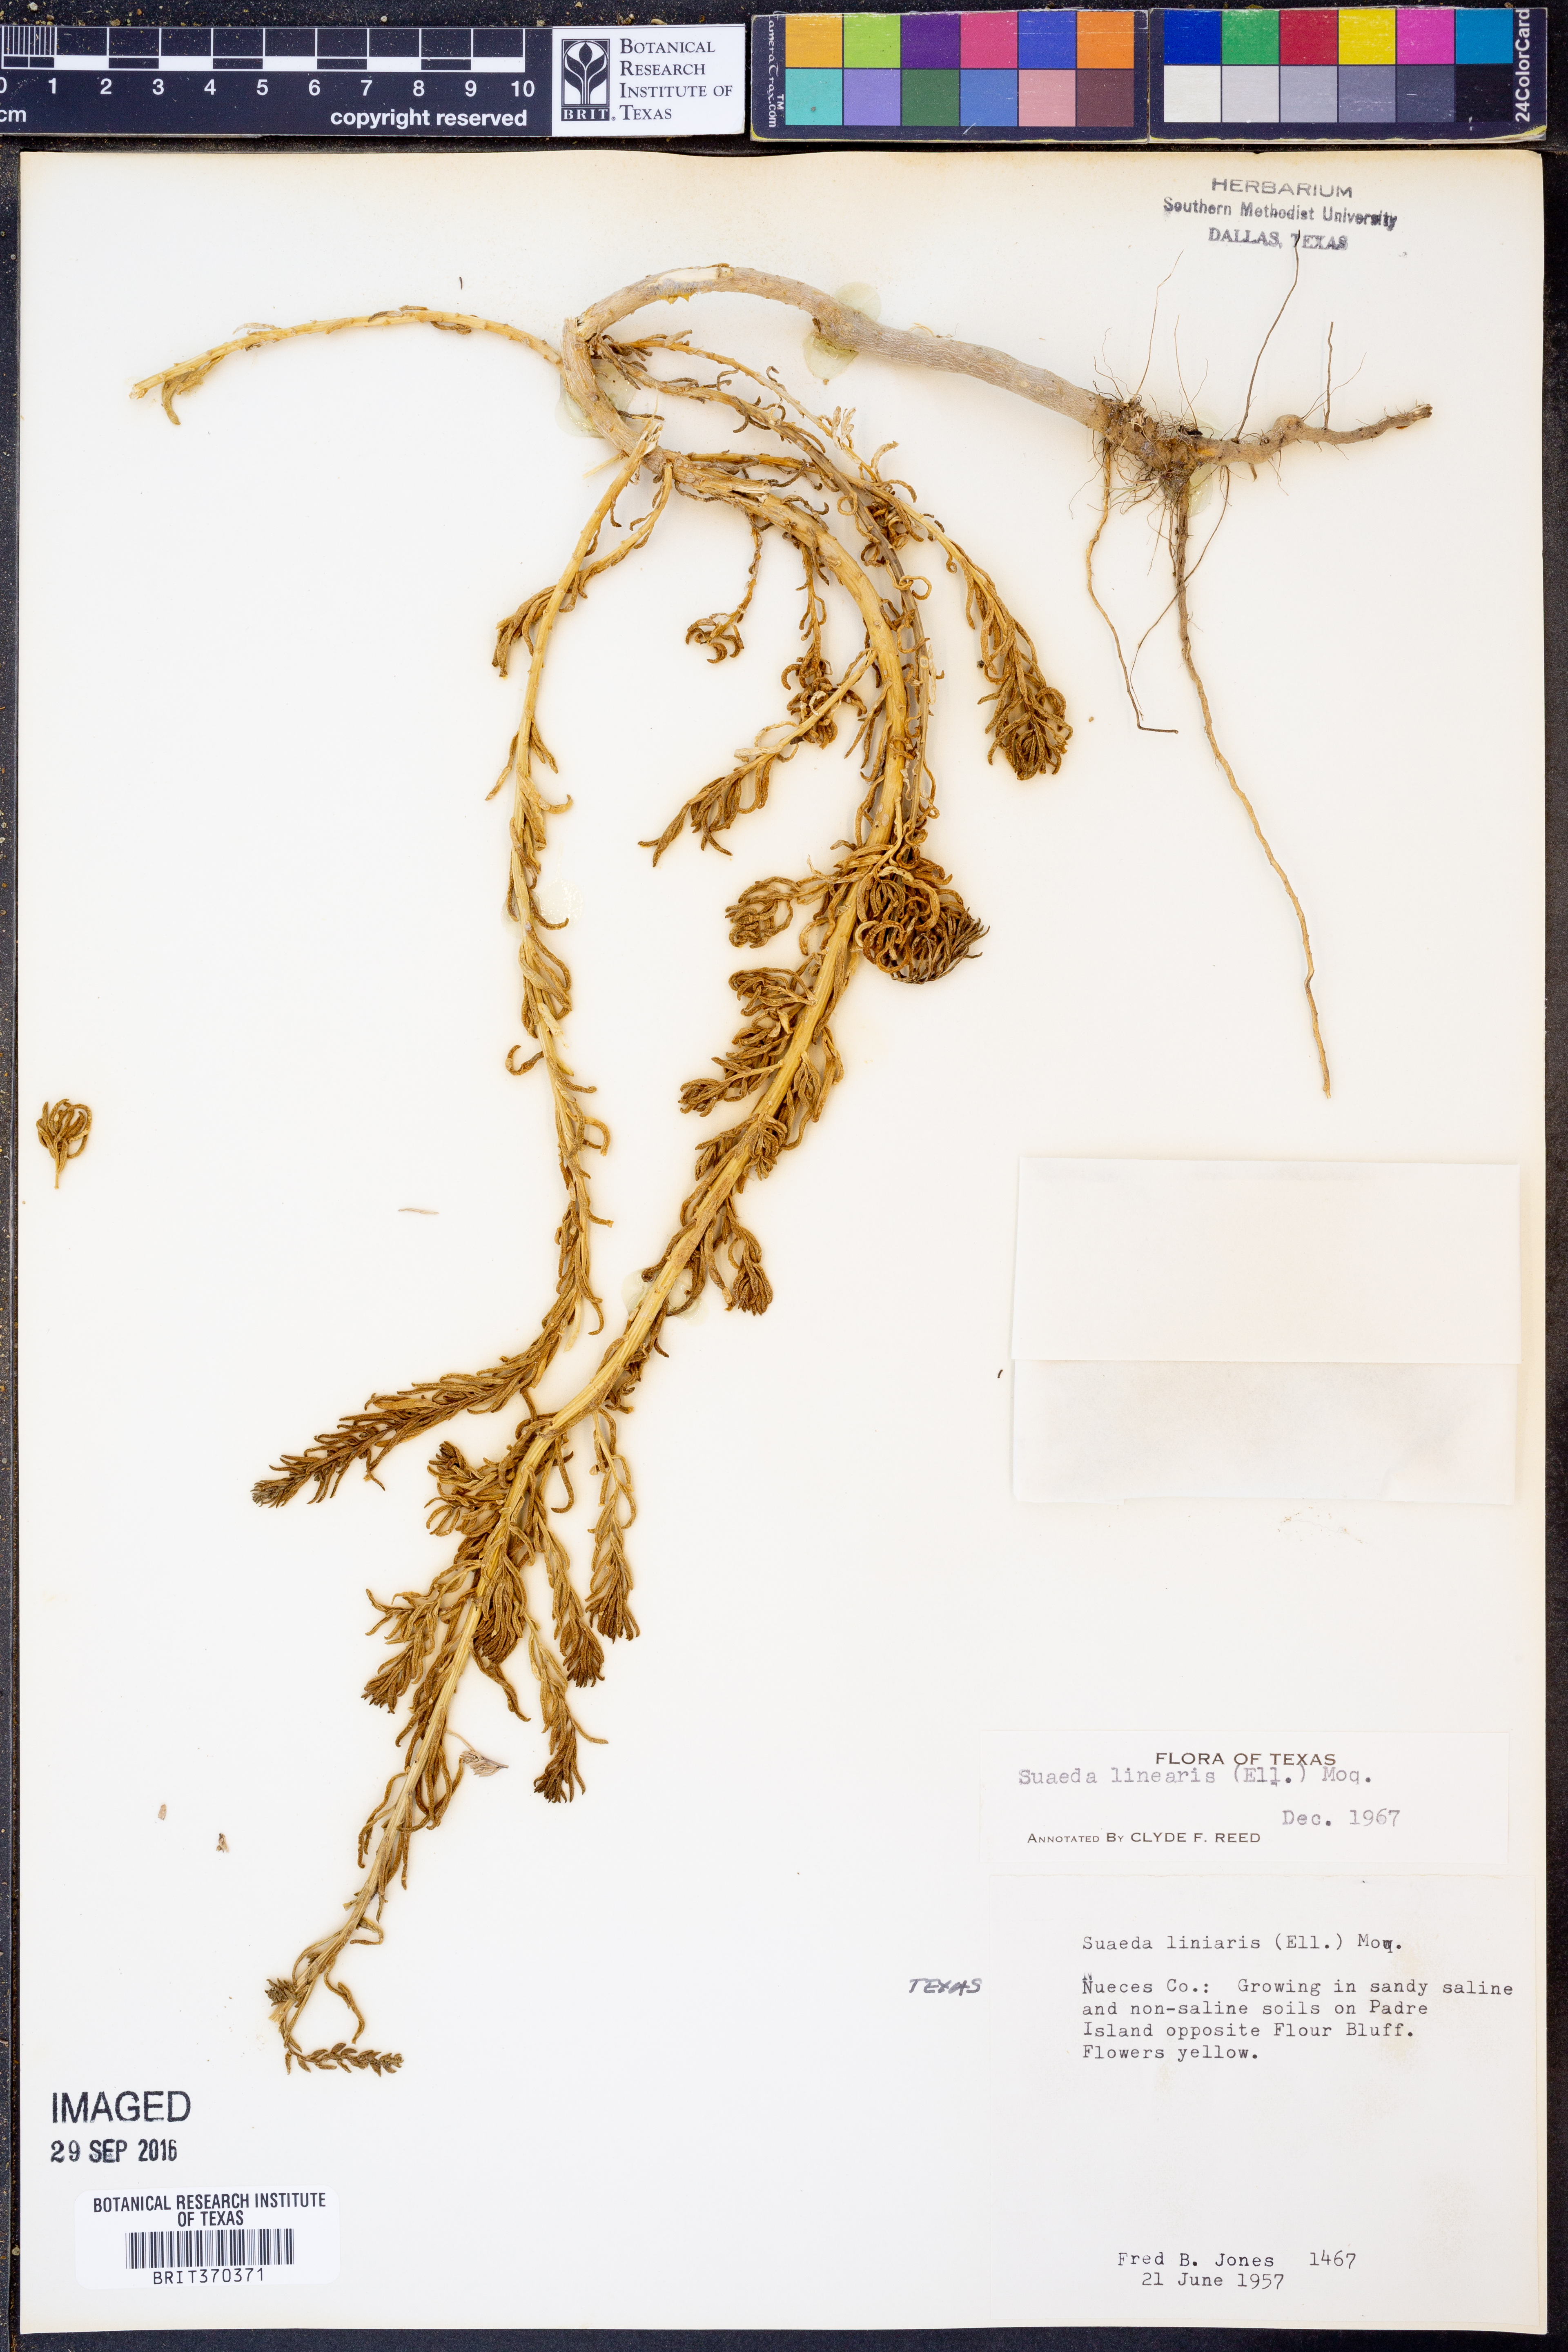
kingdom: Plantae
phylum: Tracheophyta
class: Magnoliopsida
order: Caryophyllales
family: Amaranthaceae
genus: Suaeda
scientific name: Suaeda linearis
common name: Annual seepweed
